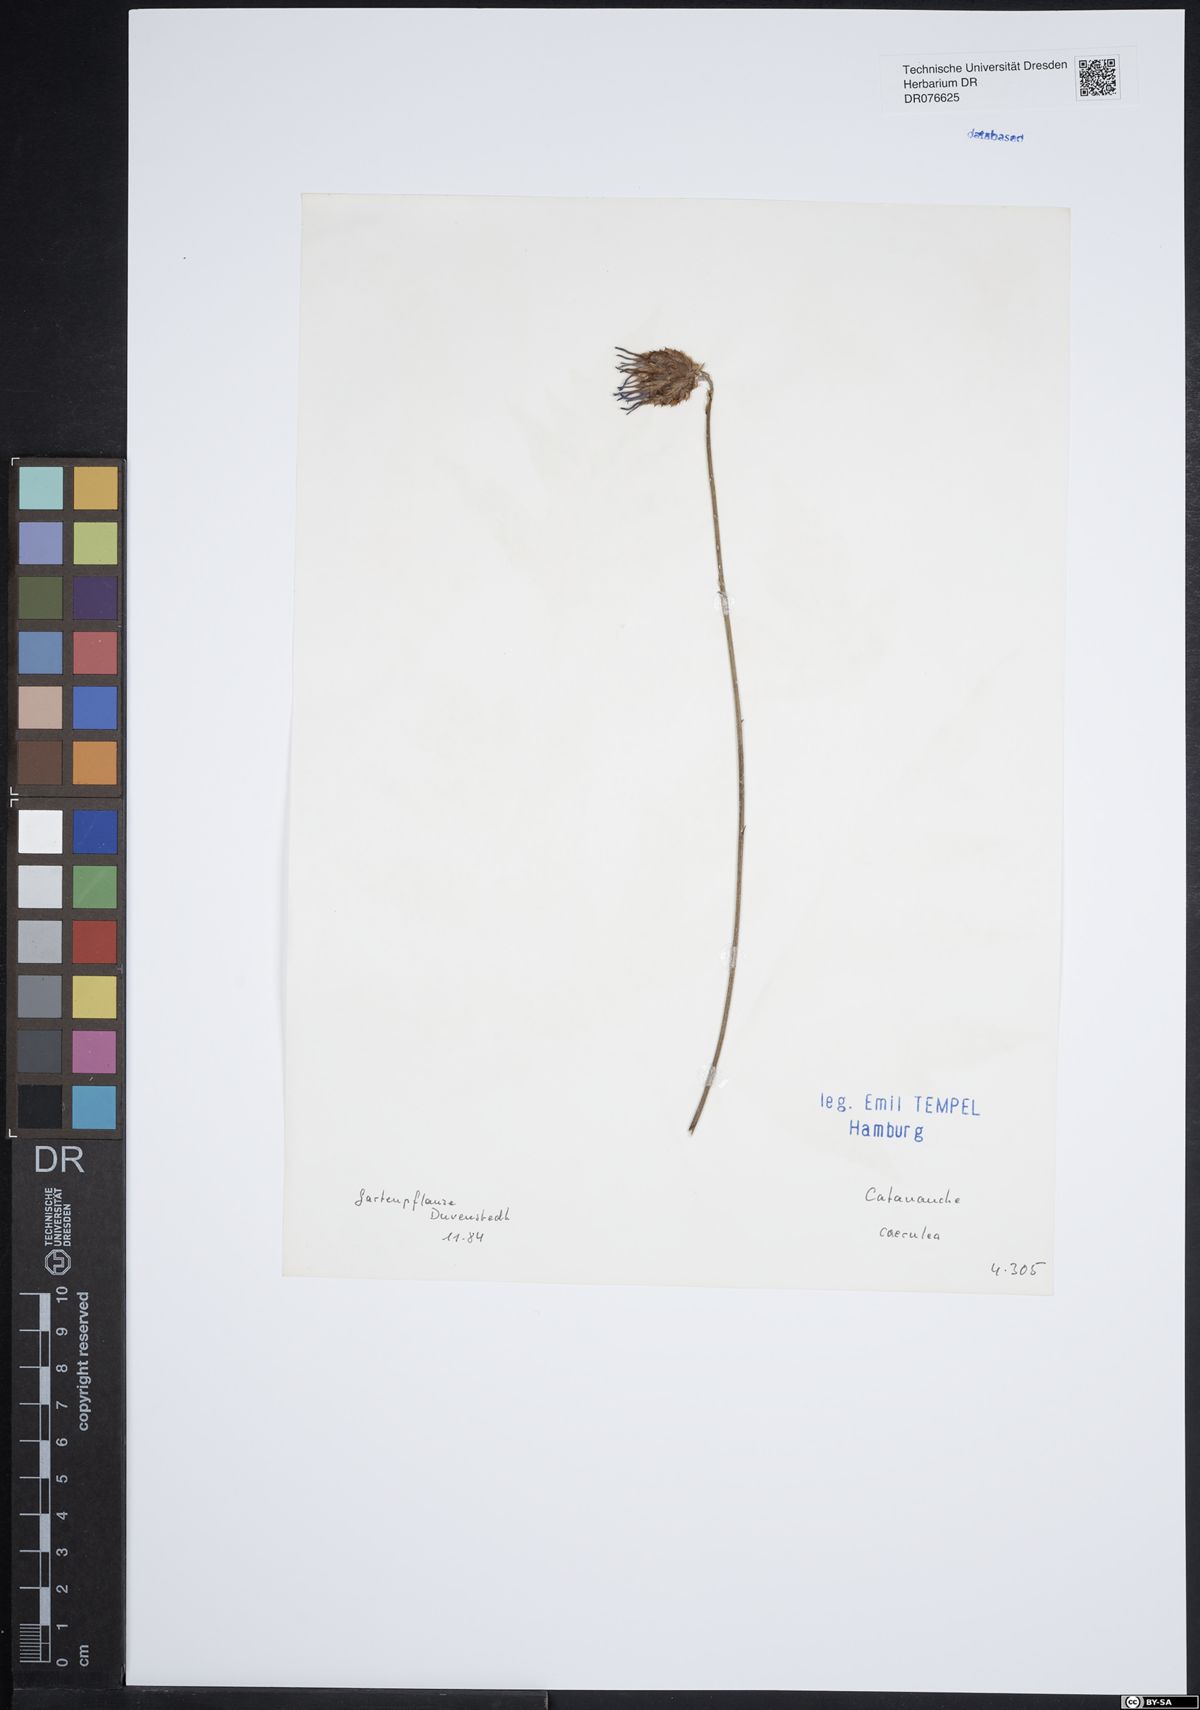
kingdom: Plantae
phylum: Tracheophyta
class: Magnoliopsida
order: Asterales
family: Asteraceae
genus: Catananche
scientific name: Catananche caerulea
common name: Blue cupidone
